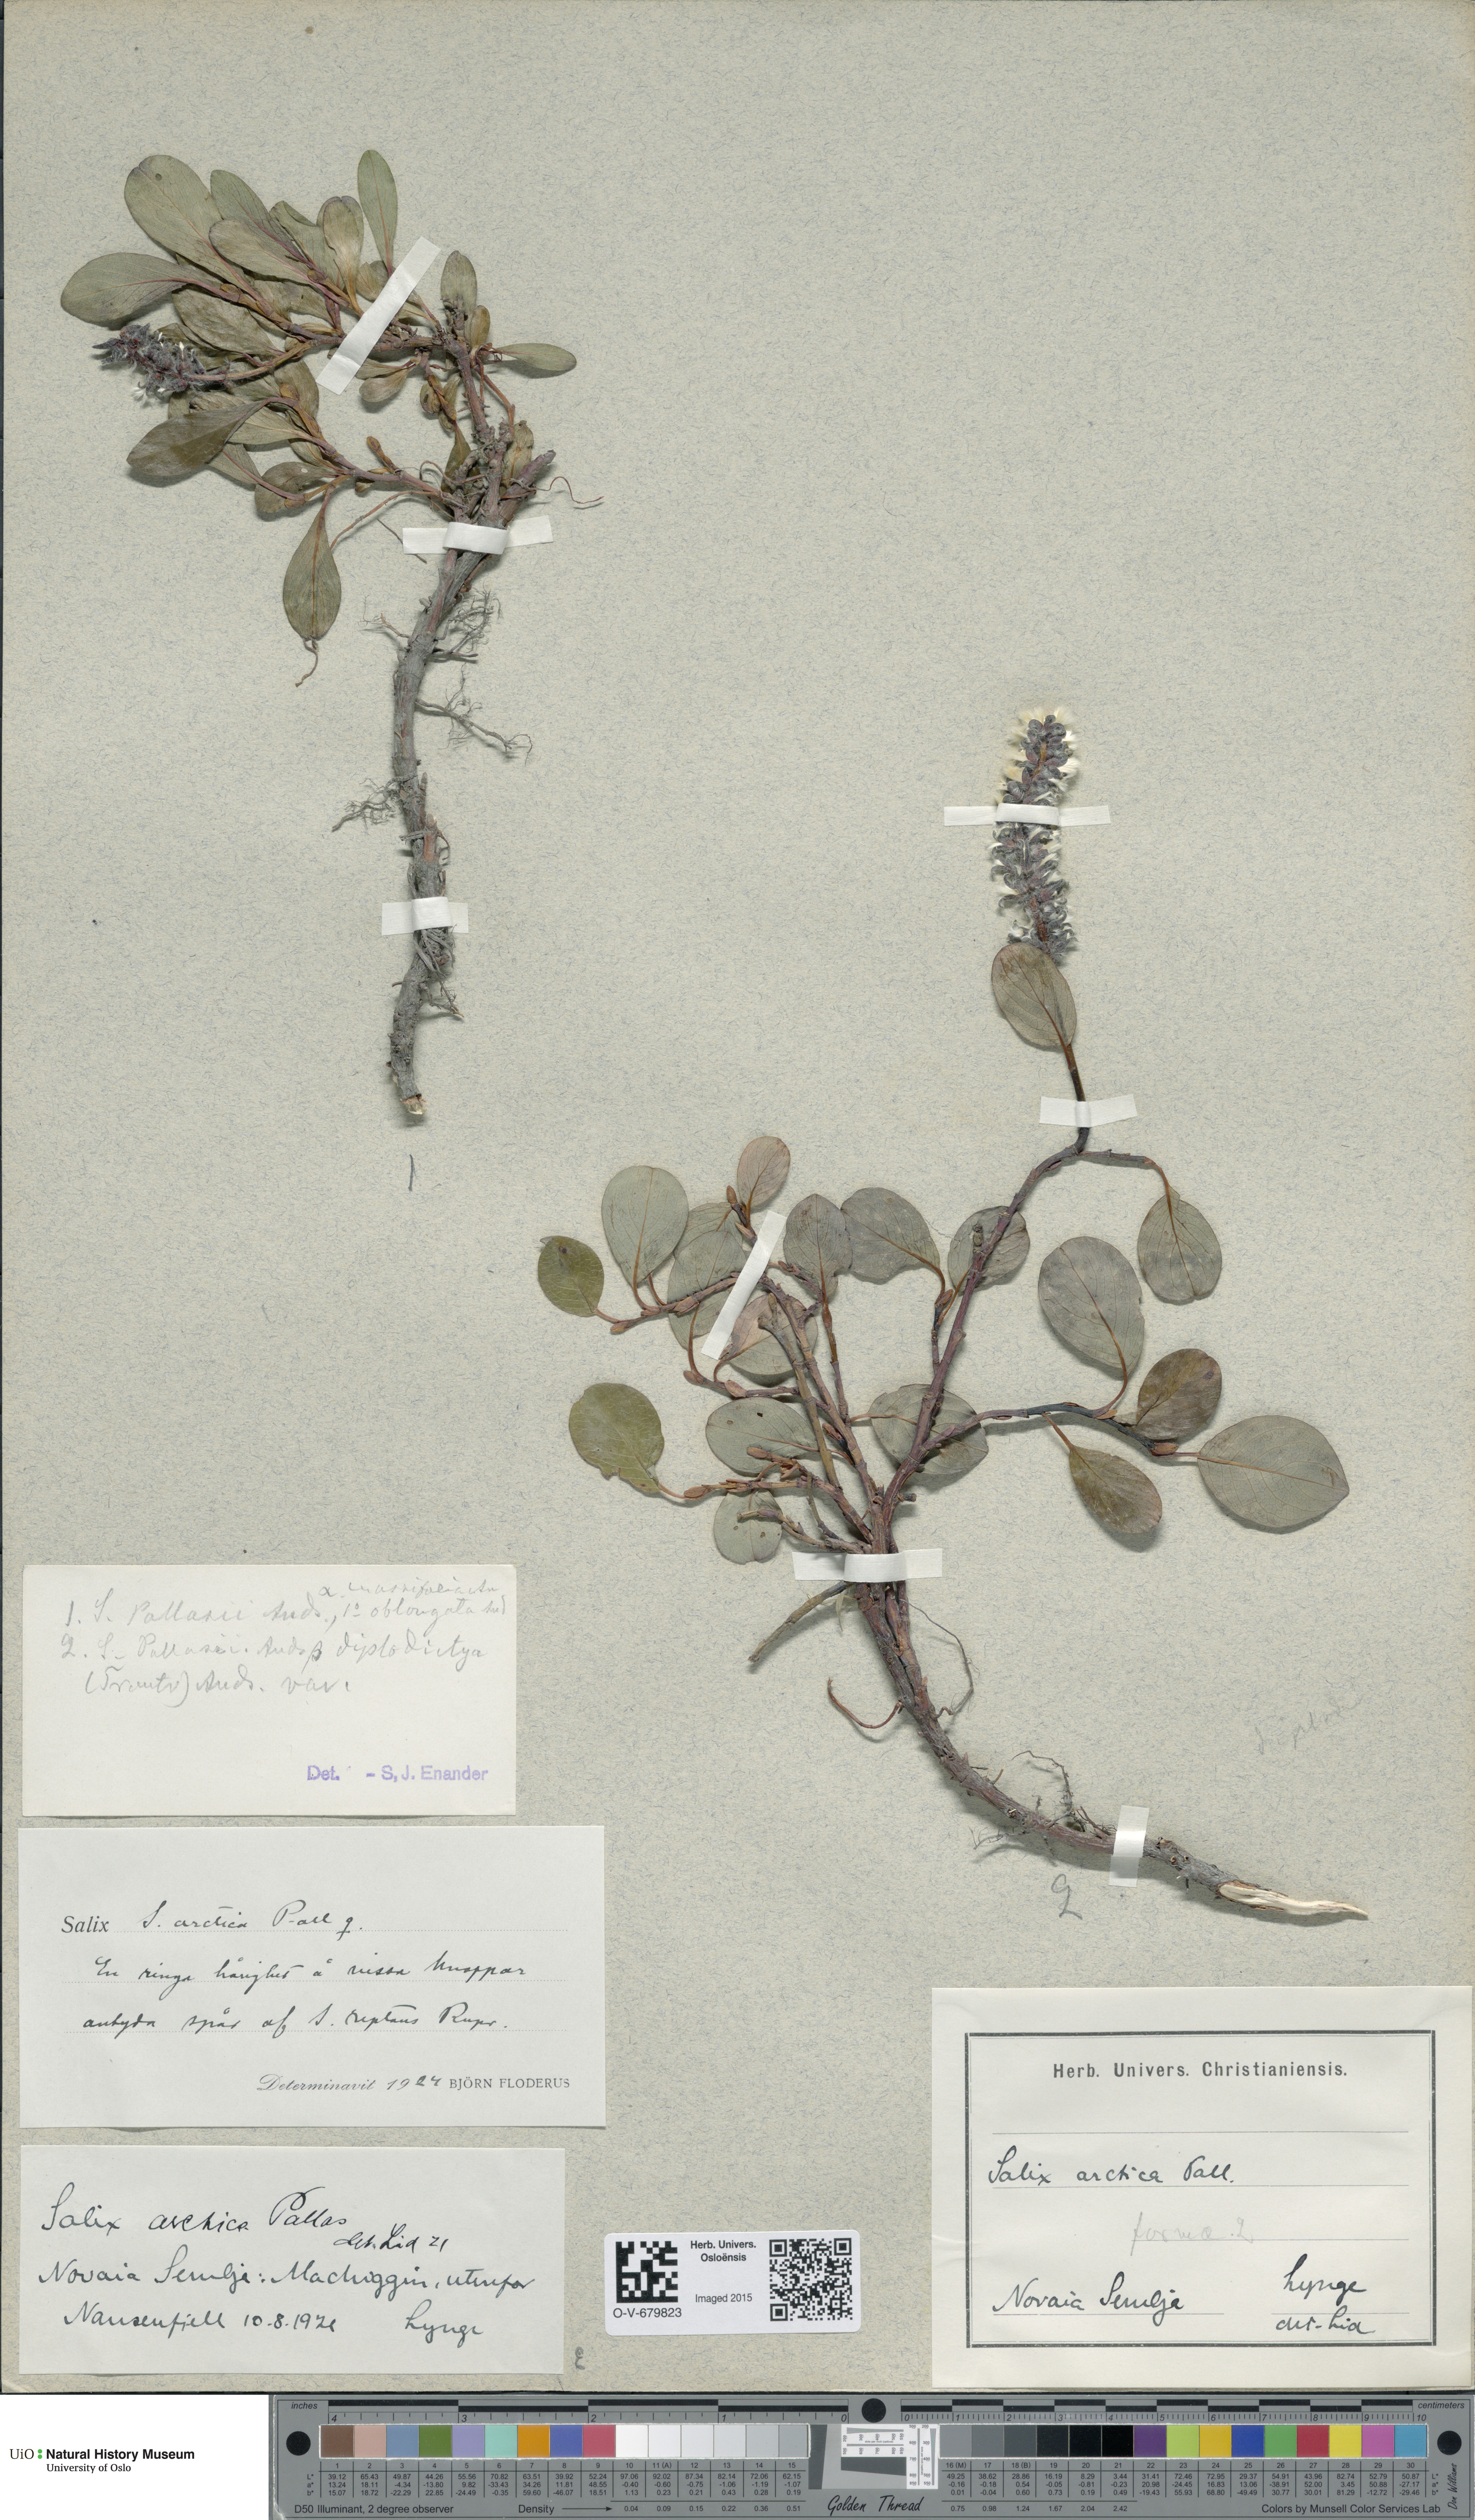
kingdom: Plantae
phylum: Tracheophyta
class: Magnoliopsida
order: Malpighiales
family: Salicaceae
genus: Salix
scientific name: Salix arctica
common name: Arctic willow
